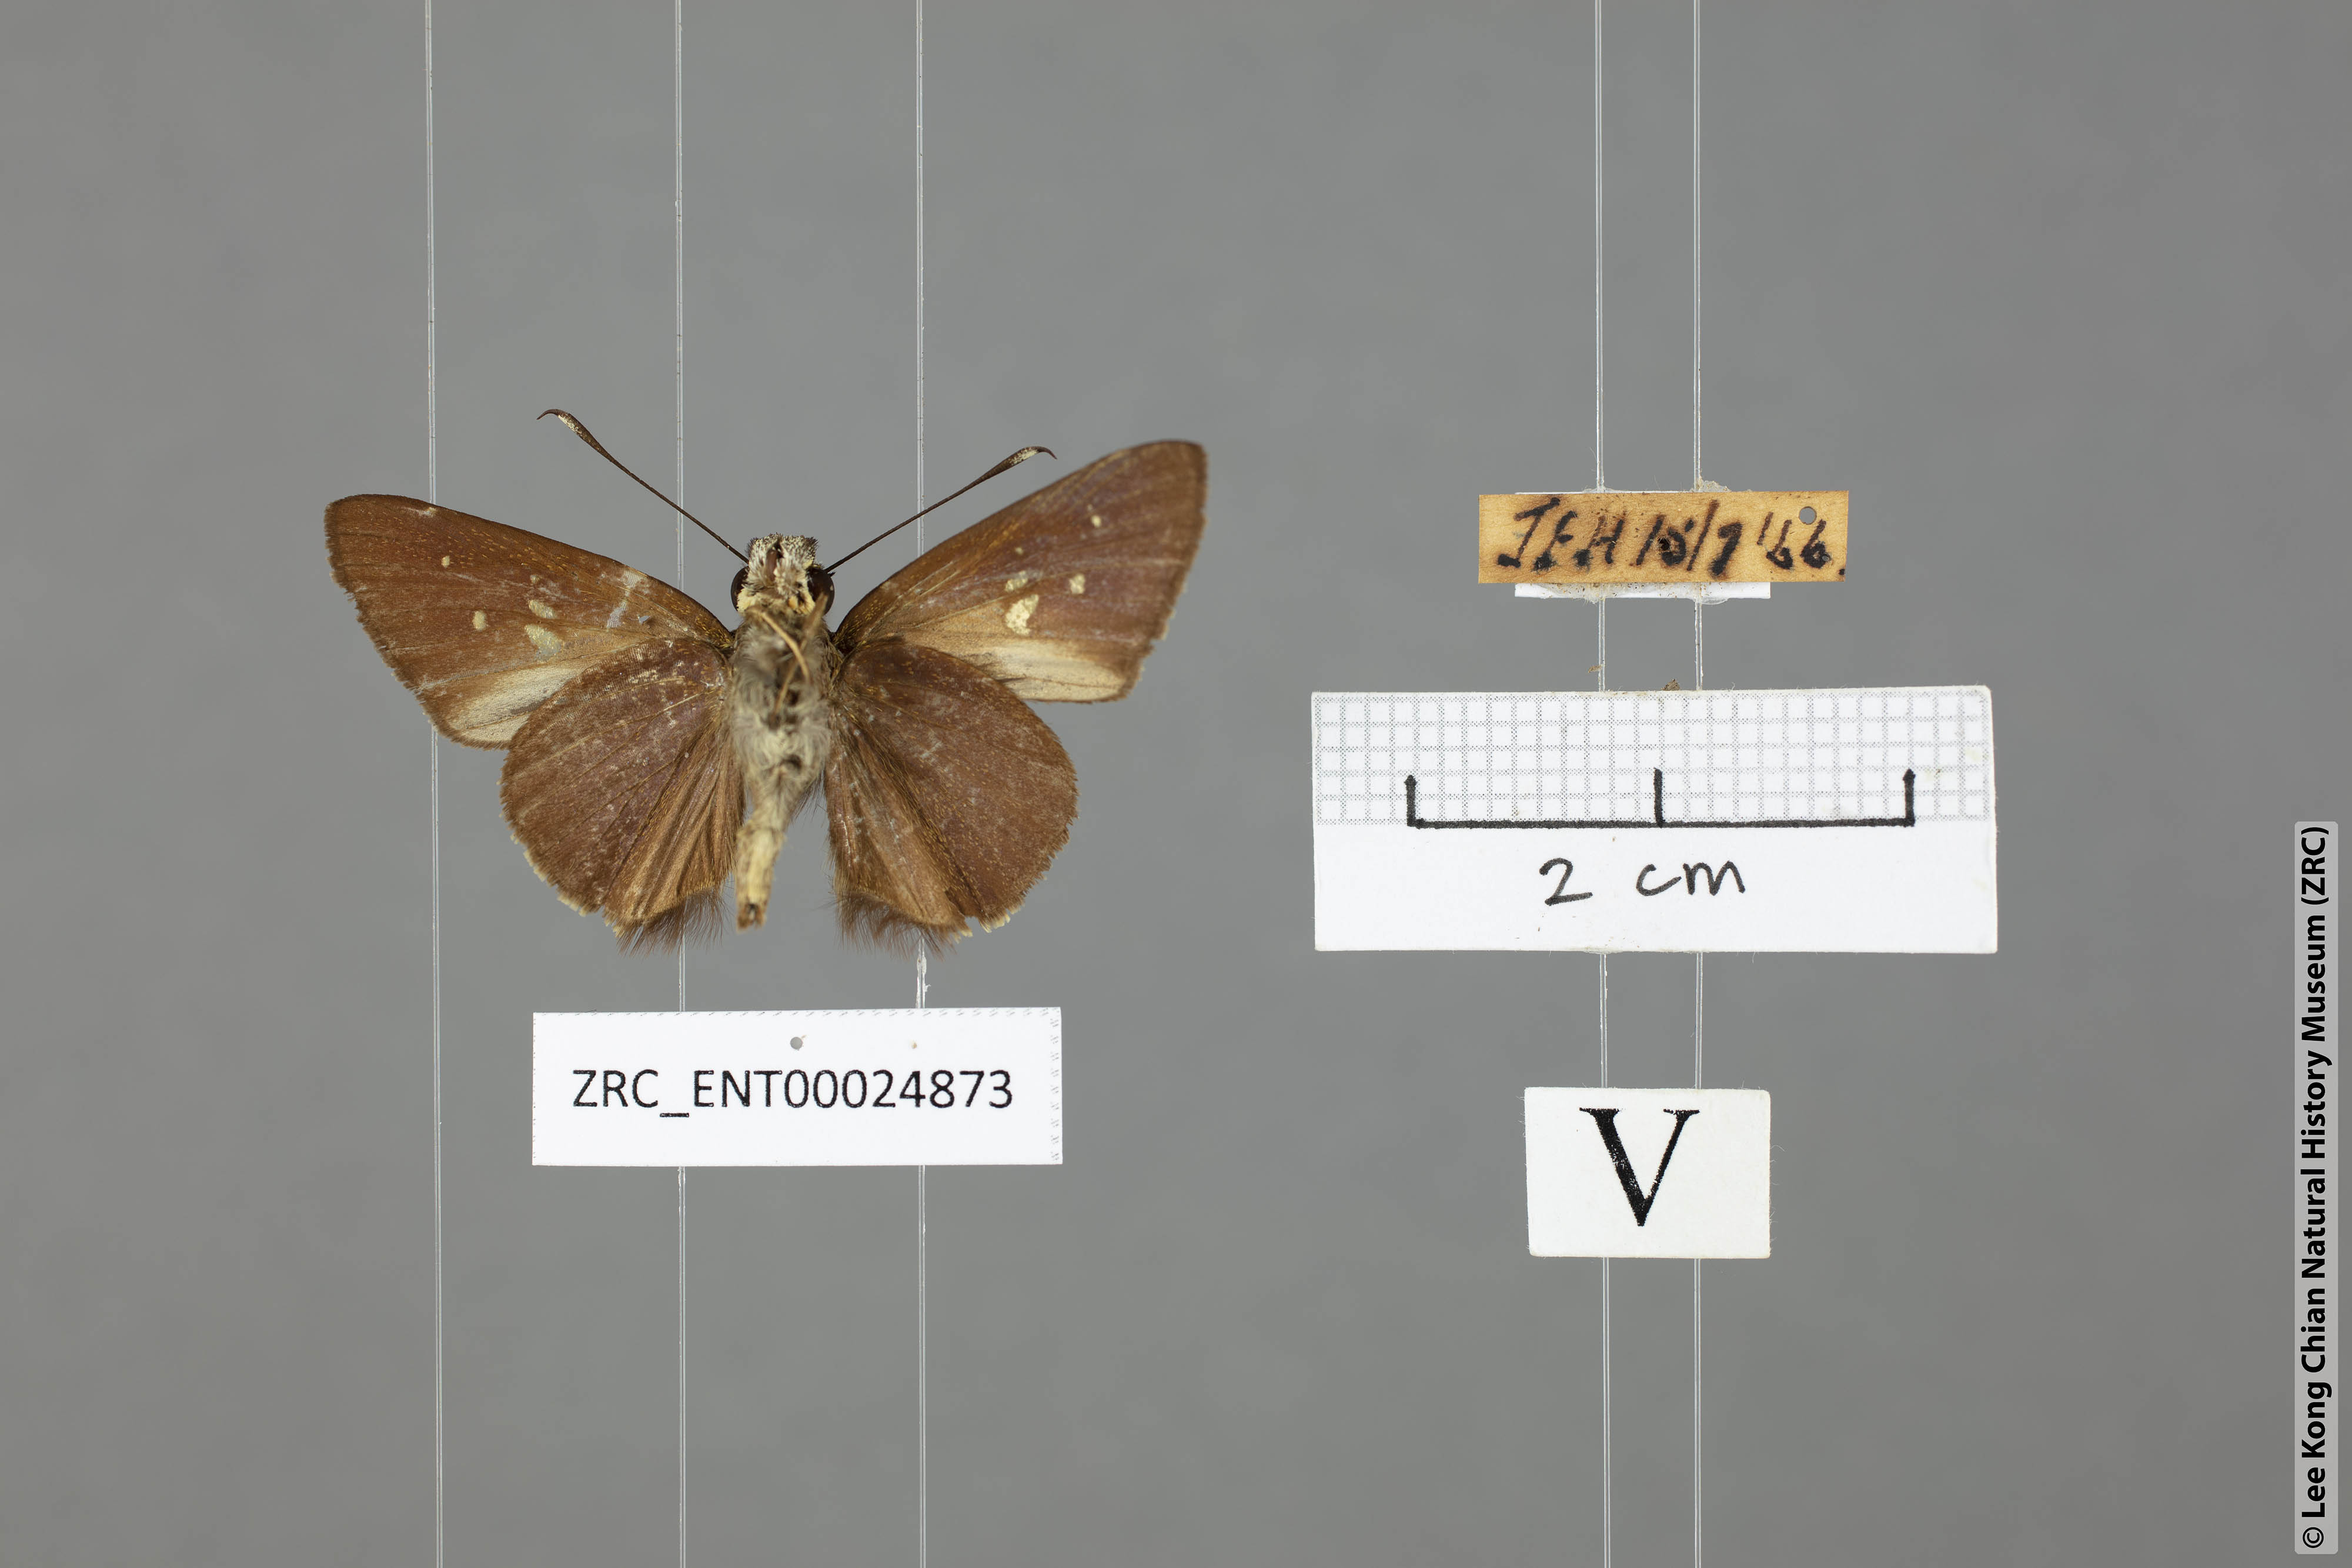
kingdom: Animalia
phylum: Arthropoda
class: Insecta
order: Lepidoptera
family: Hesperiidae
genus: Isma
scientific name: Isma protoclea
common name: Bicolour long-horned flitter
